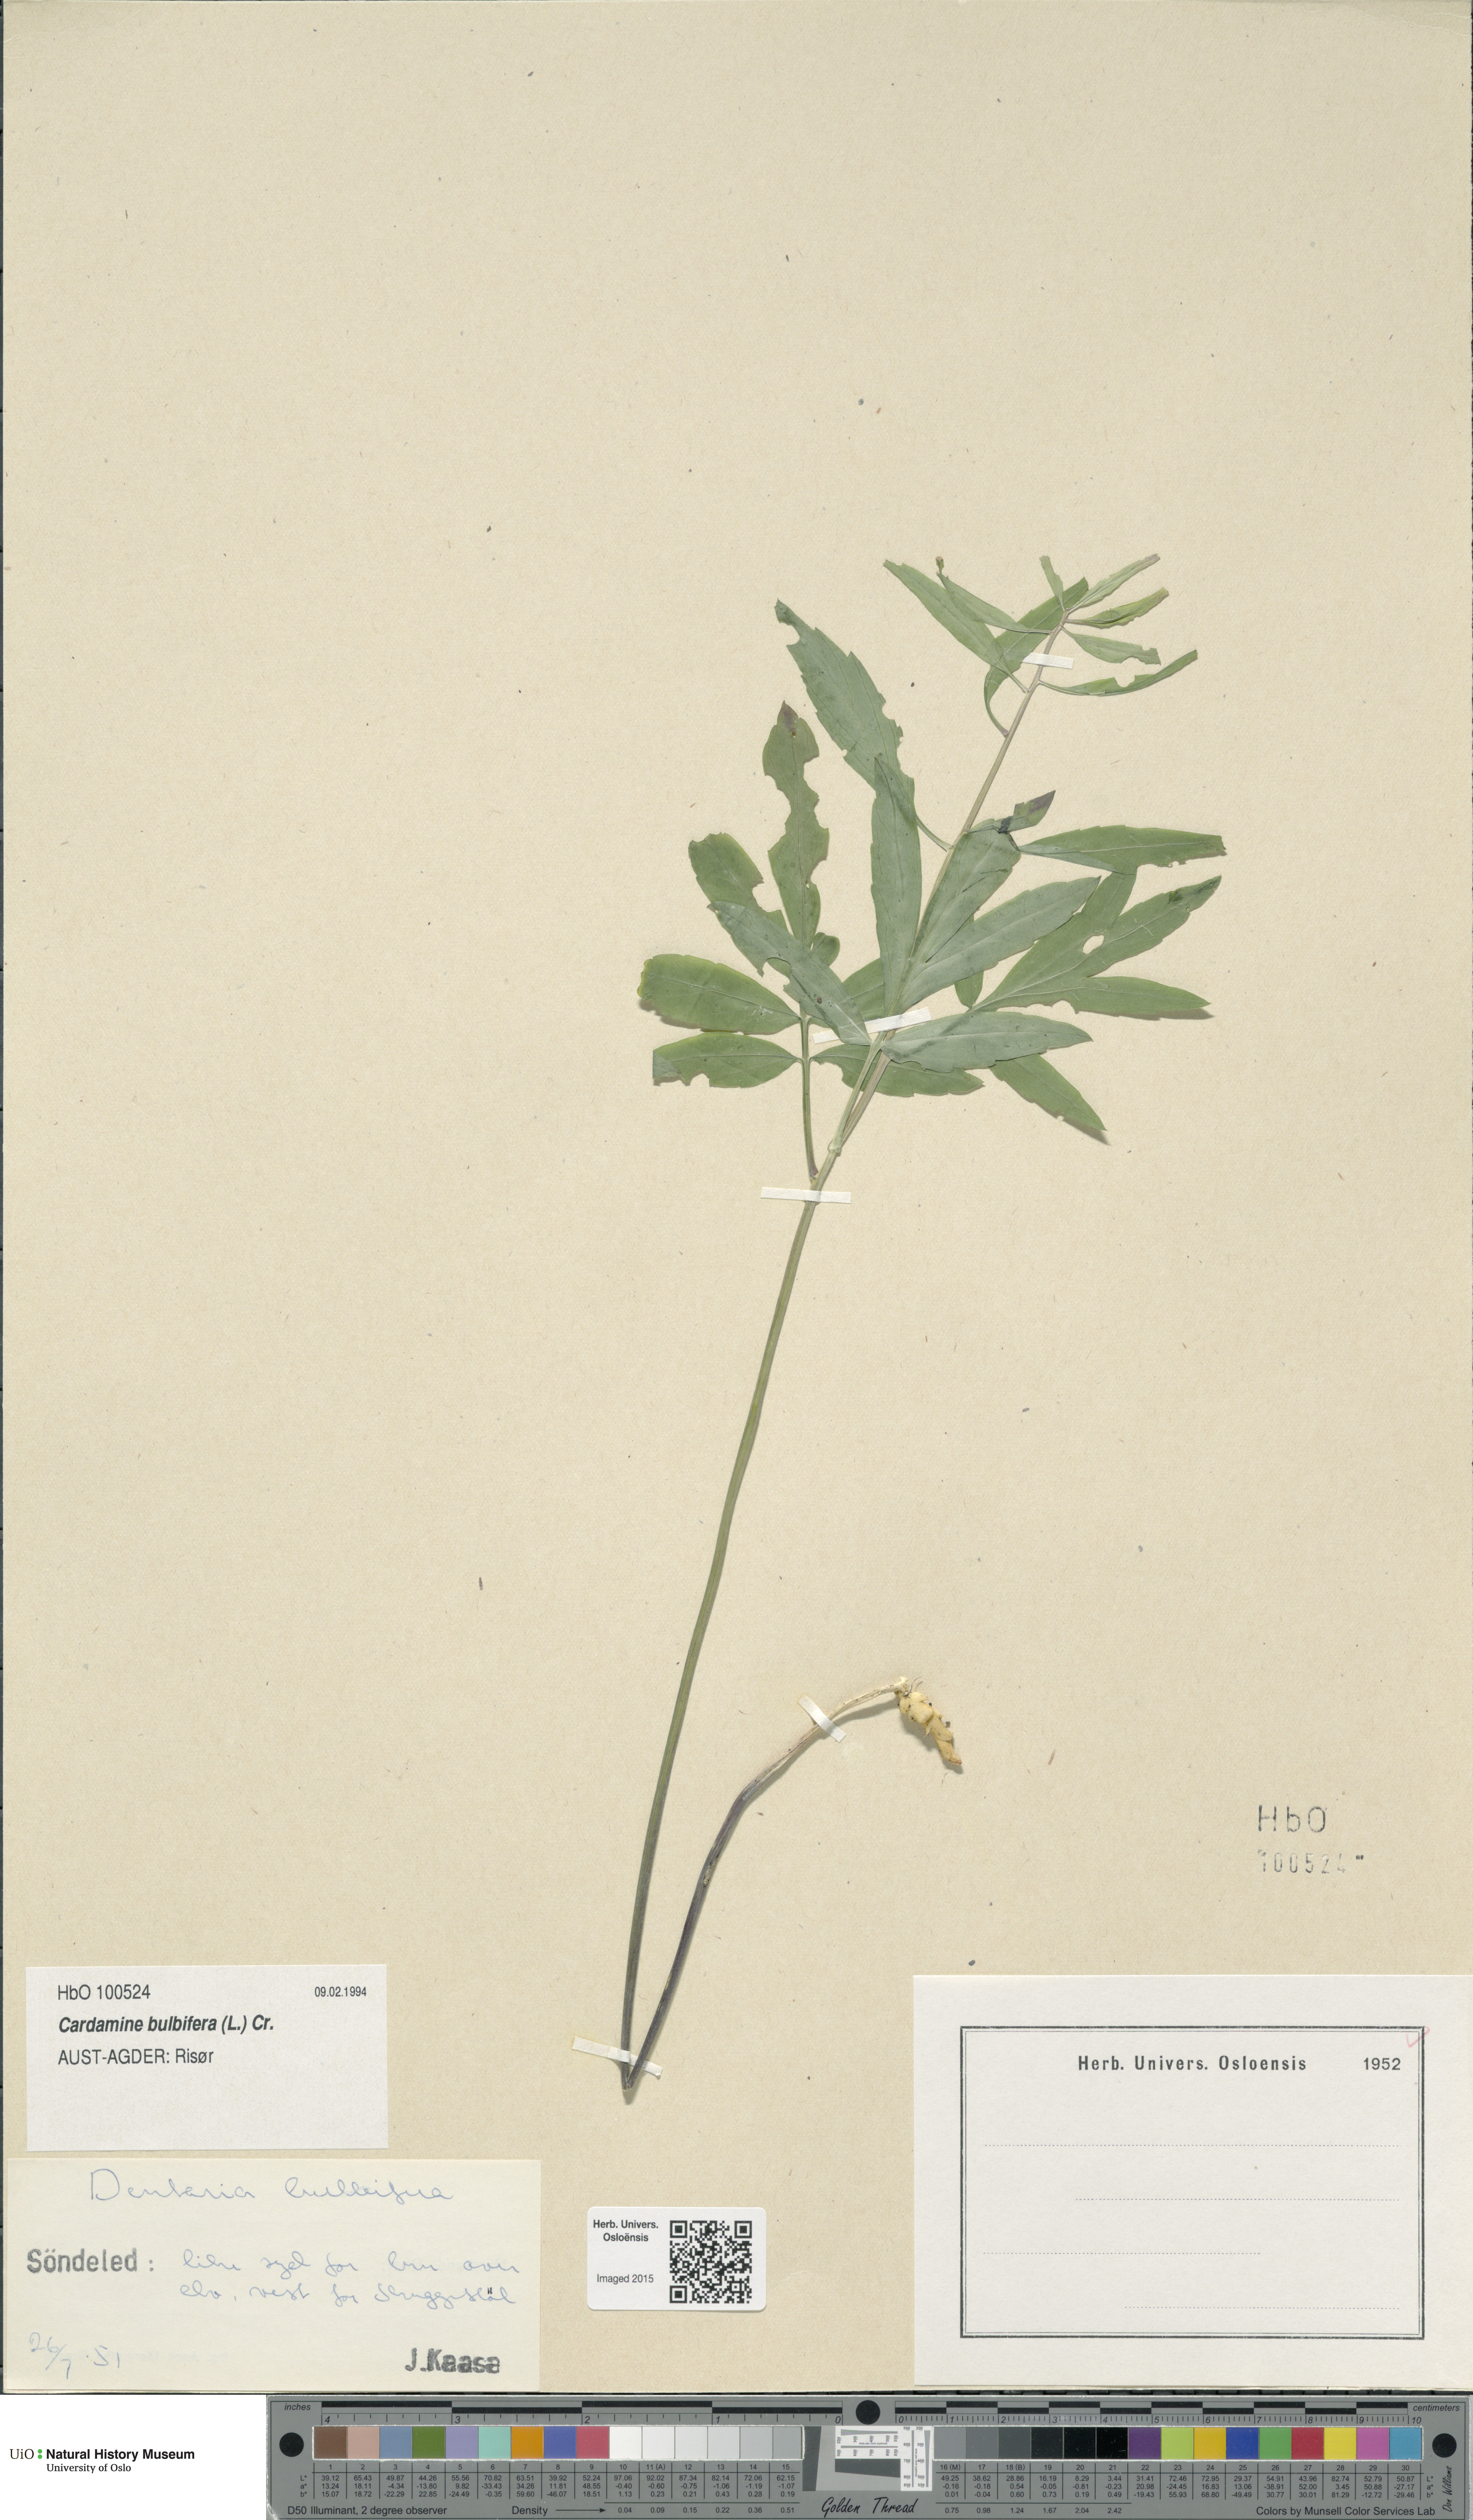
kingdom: Plantae
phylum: Tracheophyta
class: Magnoliopsida
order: Brassicales
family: Brassicaceae
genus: Cardamine
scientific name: Cardamine bulbifera
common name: Coralroot bittercress
